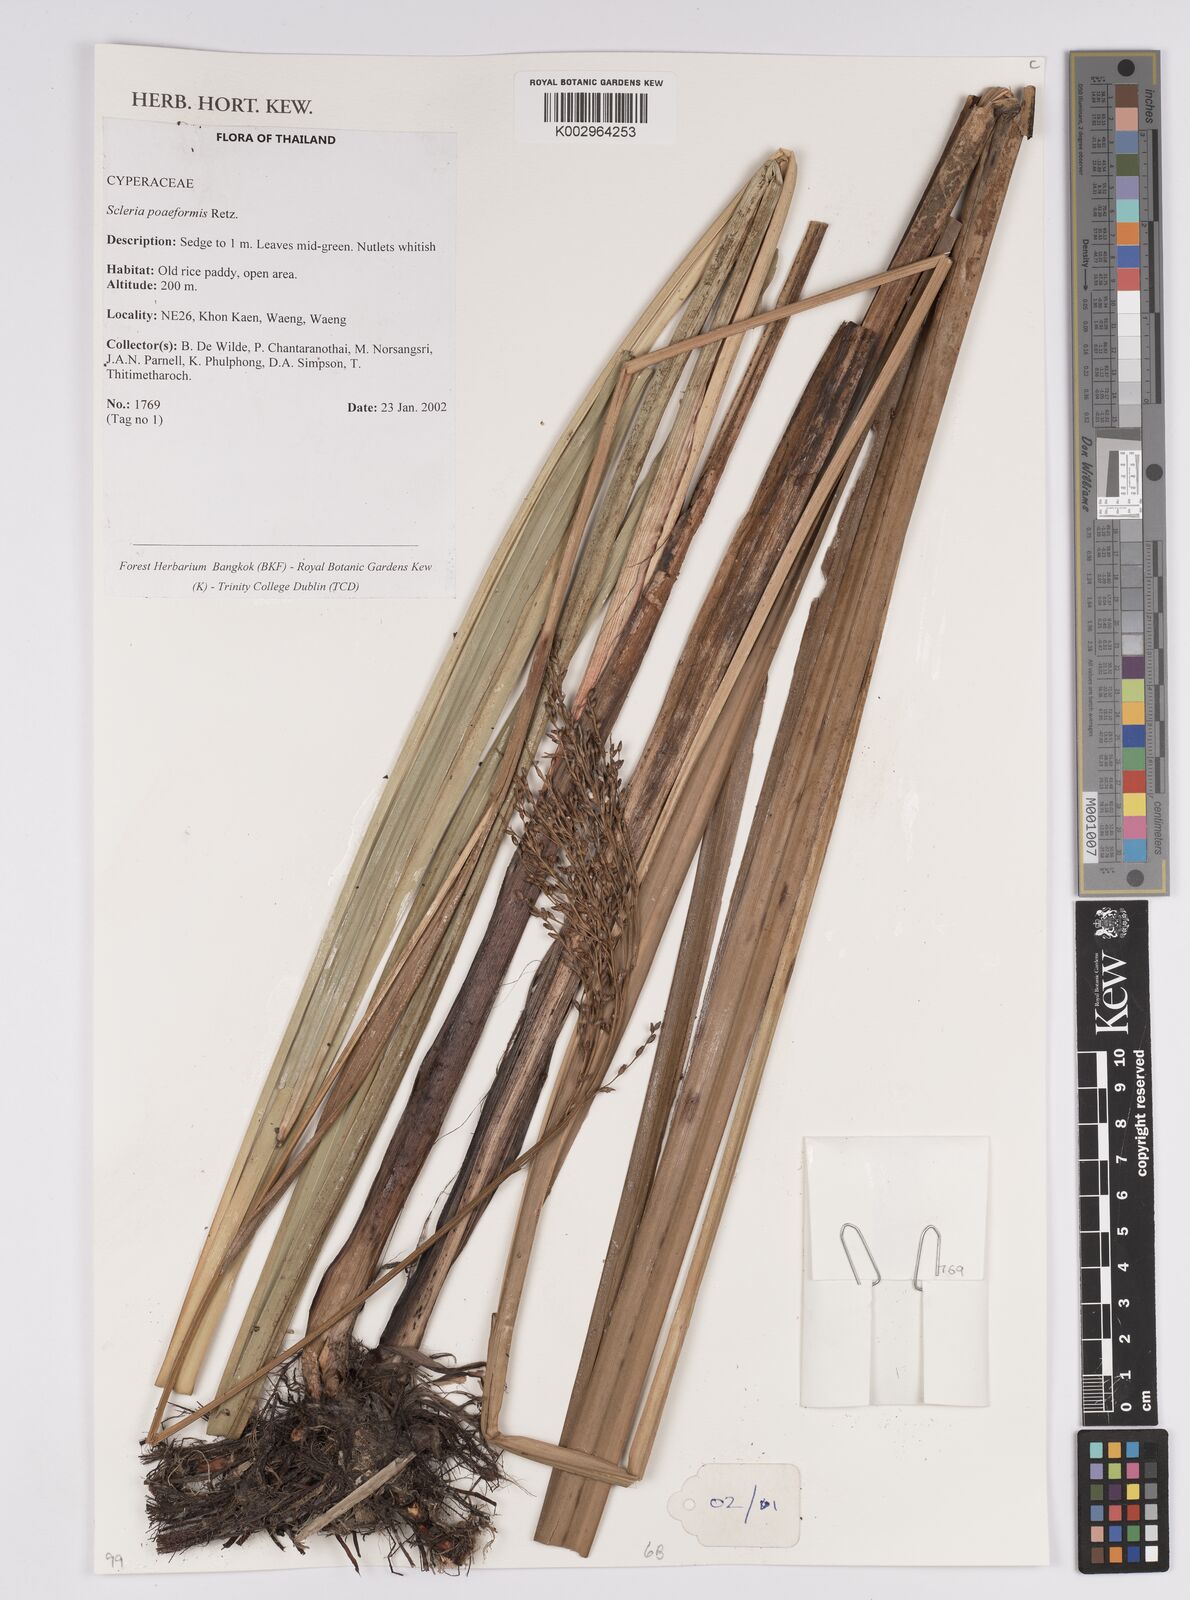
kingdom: Plantae
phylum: Tracheophyta
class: Liliopsida
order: Poales
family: Cyperaceae
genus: Scleria
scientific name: Scleria poiformis
